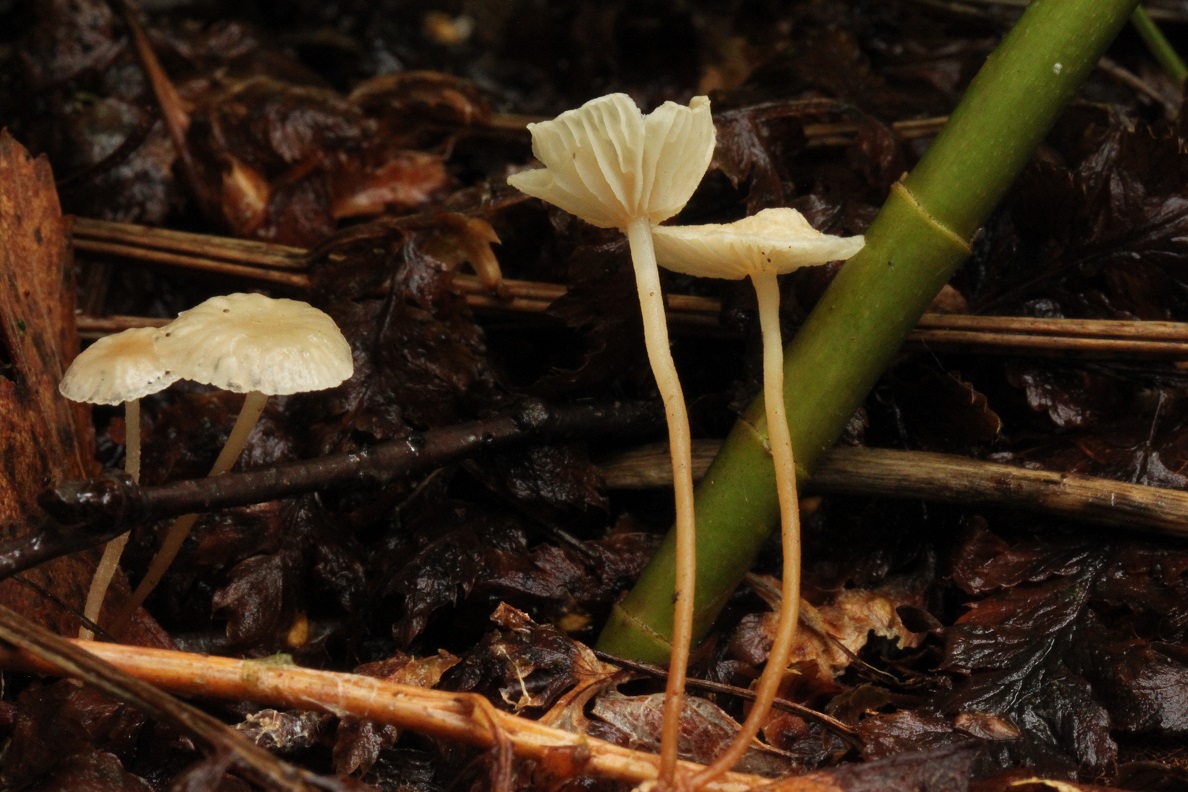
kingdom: Fungi
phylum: Basidiomycota
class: Agaricomycetes
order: Agaricales
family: Omphalotaceae
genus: Collybiopsis
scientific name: Collybiopsis vaillantii
